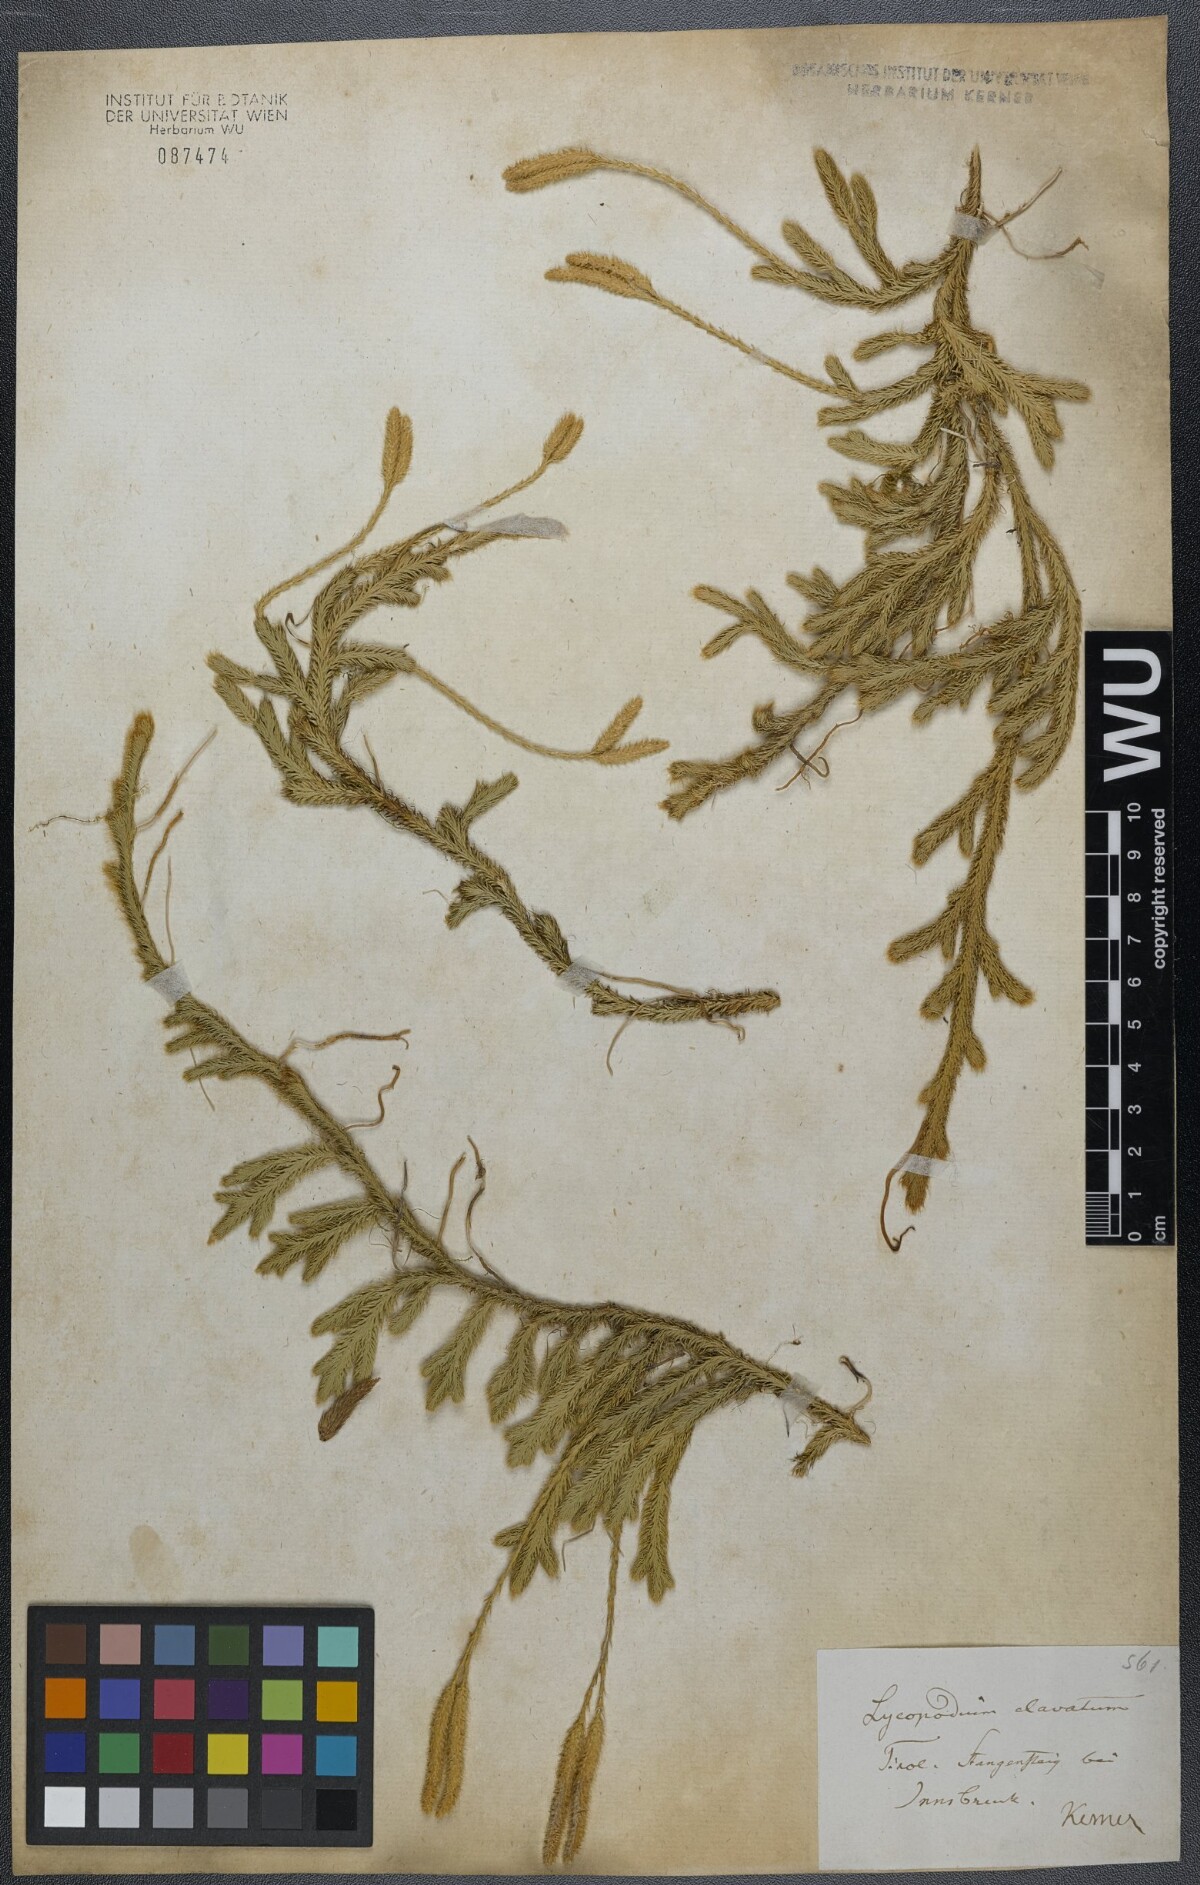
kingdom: Plantae
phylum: Tracheophyta
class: Lycopodiopsida
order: Lycopodiales
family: Lycopodiaceae
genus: Lycopodium
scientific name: Lycopodium clavatum
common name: Stag's-horn clubmoss
